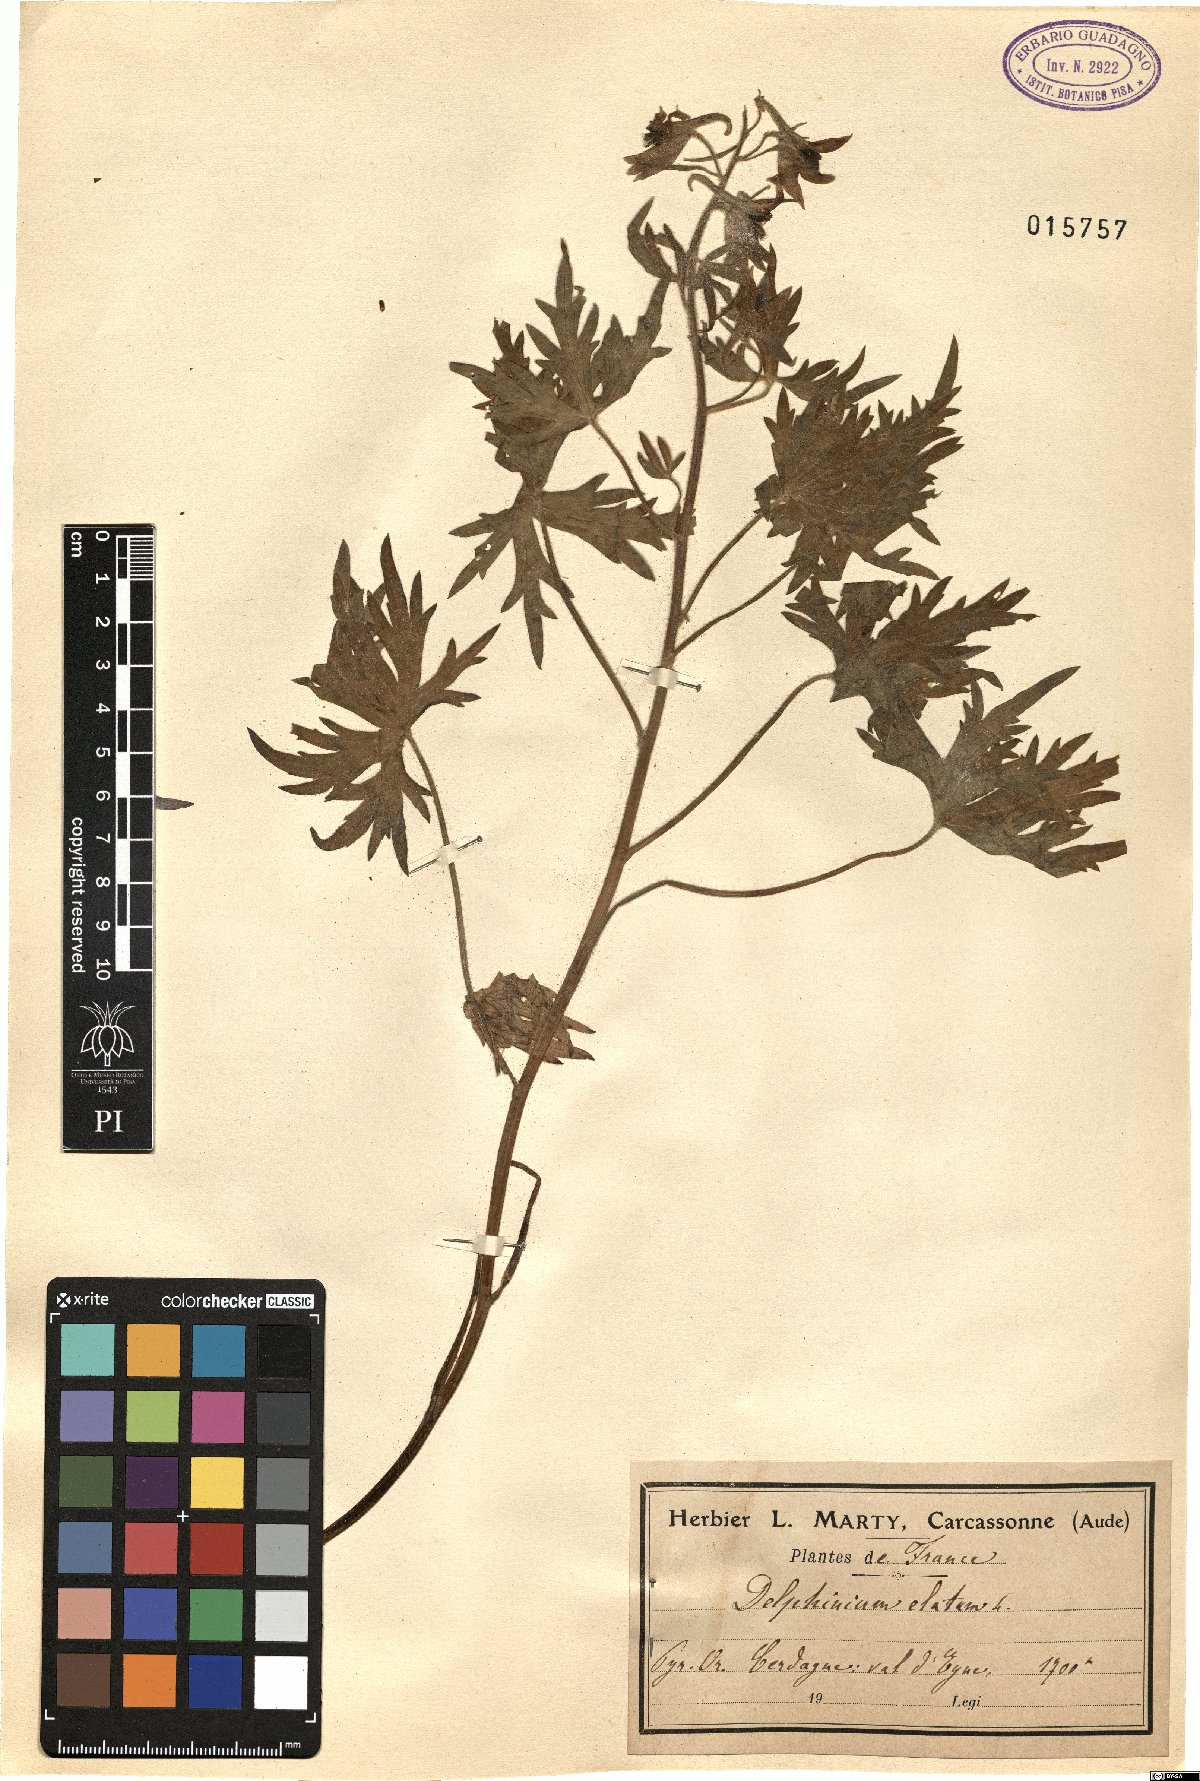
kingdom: Plantae
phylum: Tracheophyta
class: Magnoliopsida
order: Ranunculales
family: Ranunculaceae
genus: Delphinium
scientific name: Delphinium elatum
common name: Candle larkspur
